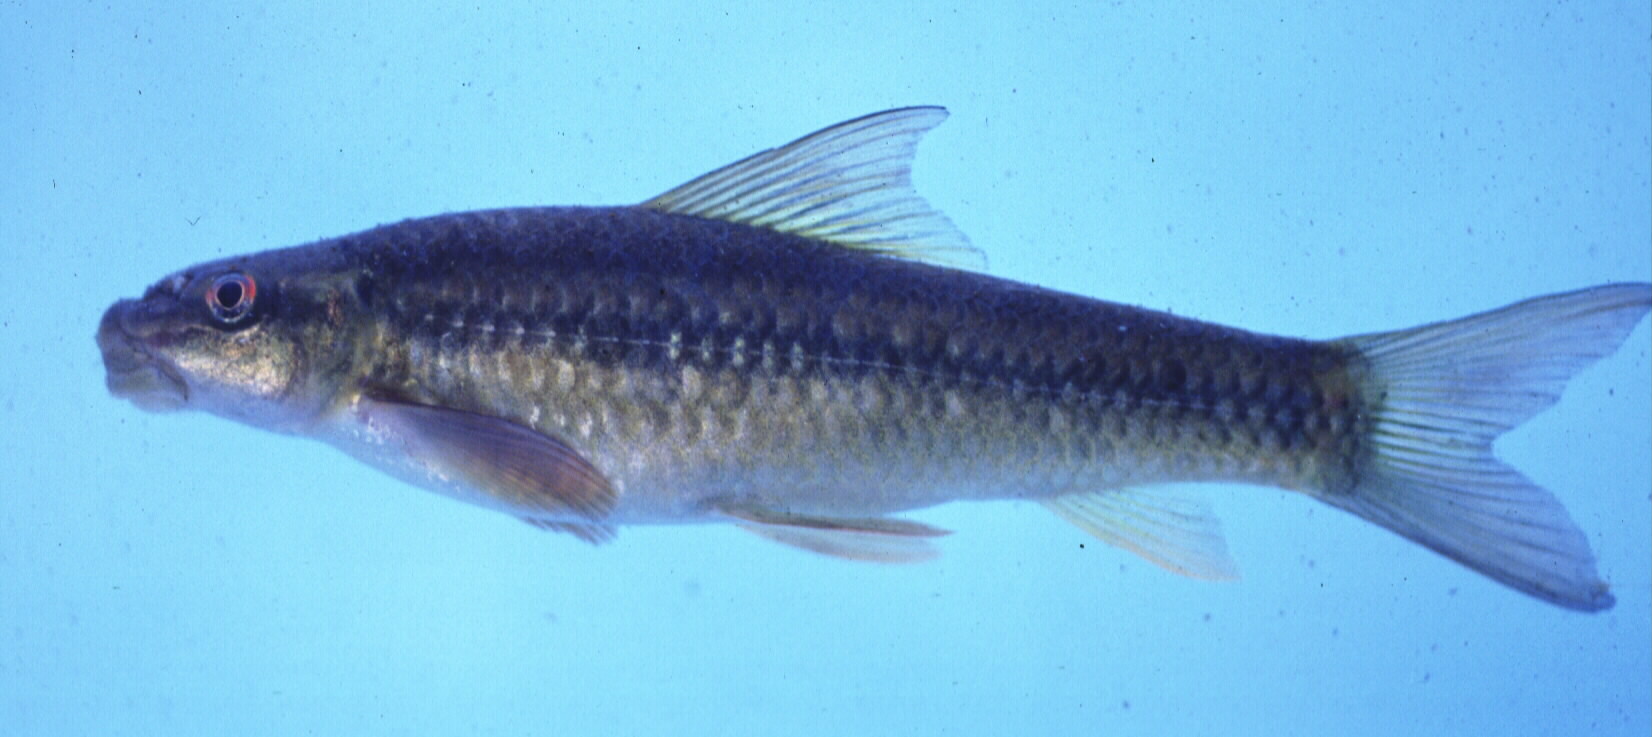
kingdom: Animalia
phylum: Chordata
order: Cypriniformes
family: Cyprinidae
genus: Labeo
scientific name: Labeo cylindricus
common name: Redeye labeo
